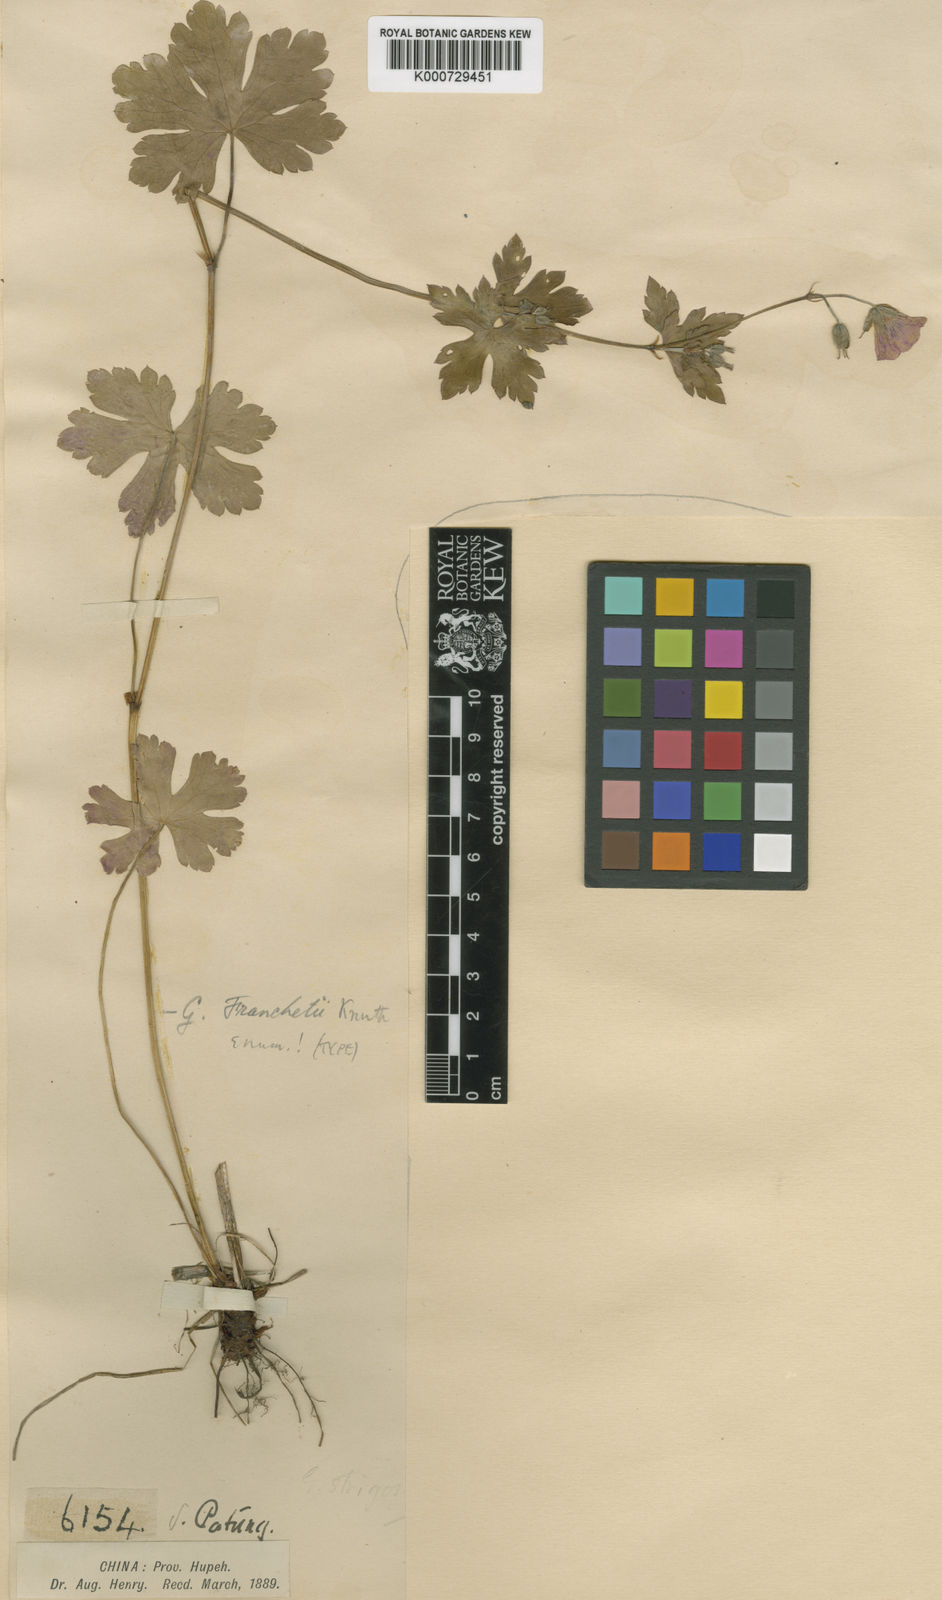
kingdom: Plantae
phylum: Tracheophyta
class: Magnoliopsida
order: Geraniales
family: Geraniaceae
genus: Geranium
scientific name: Geranium franchetii
